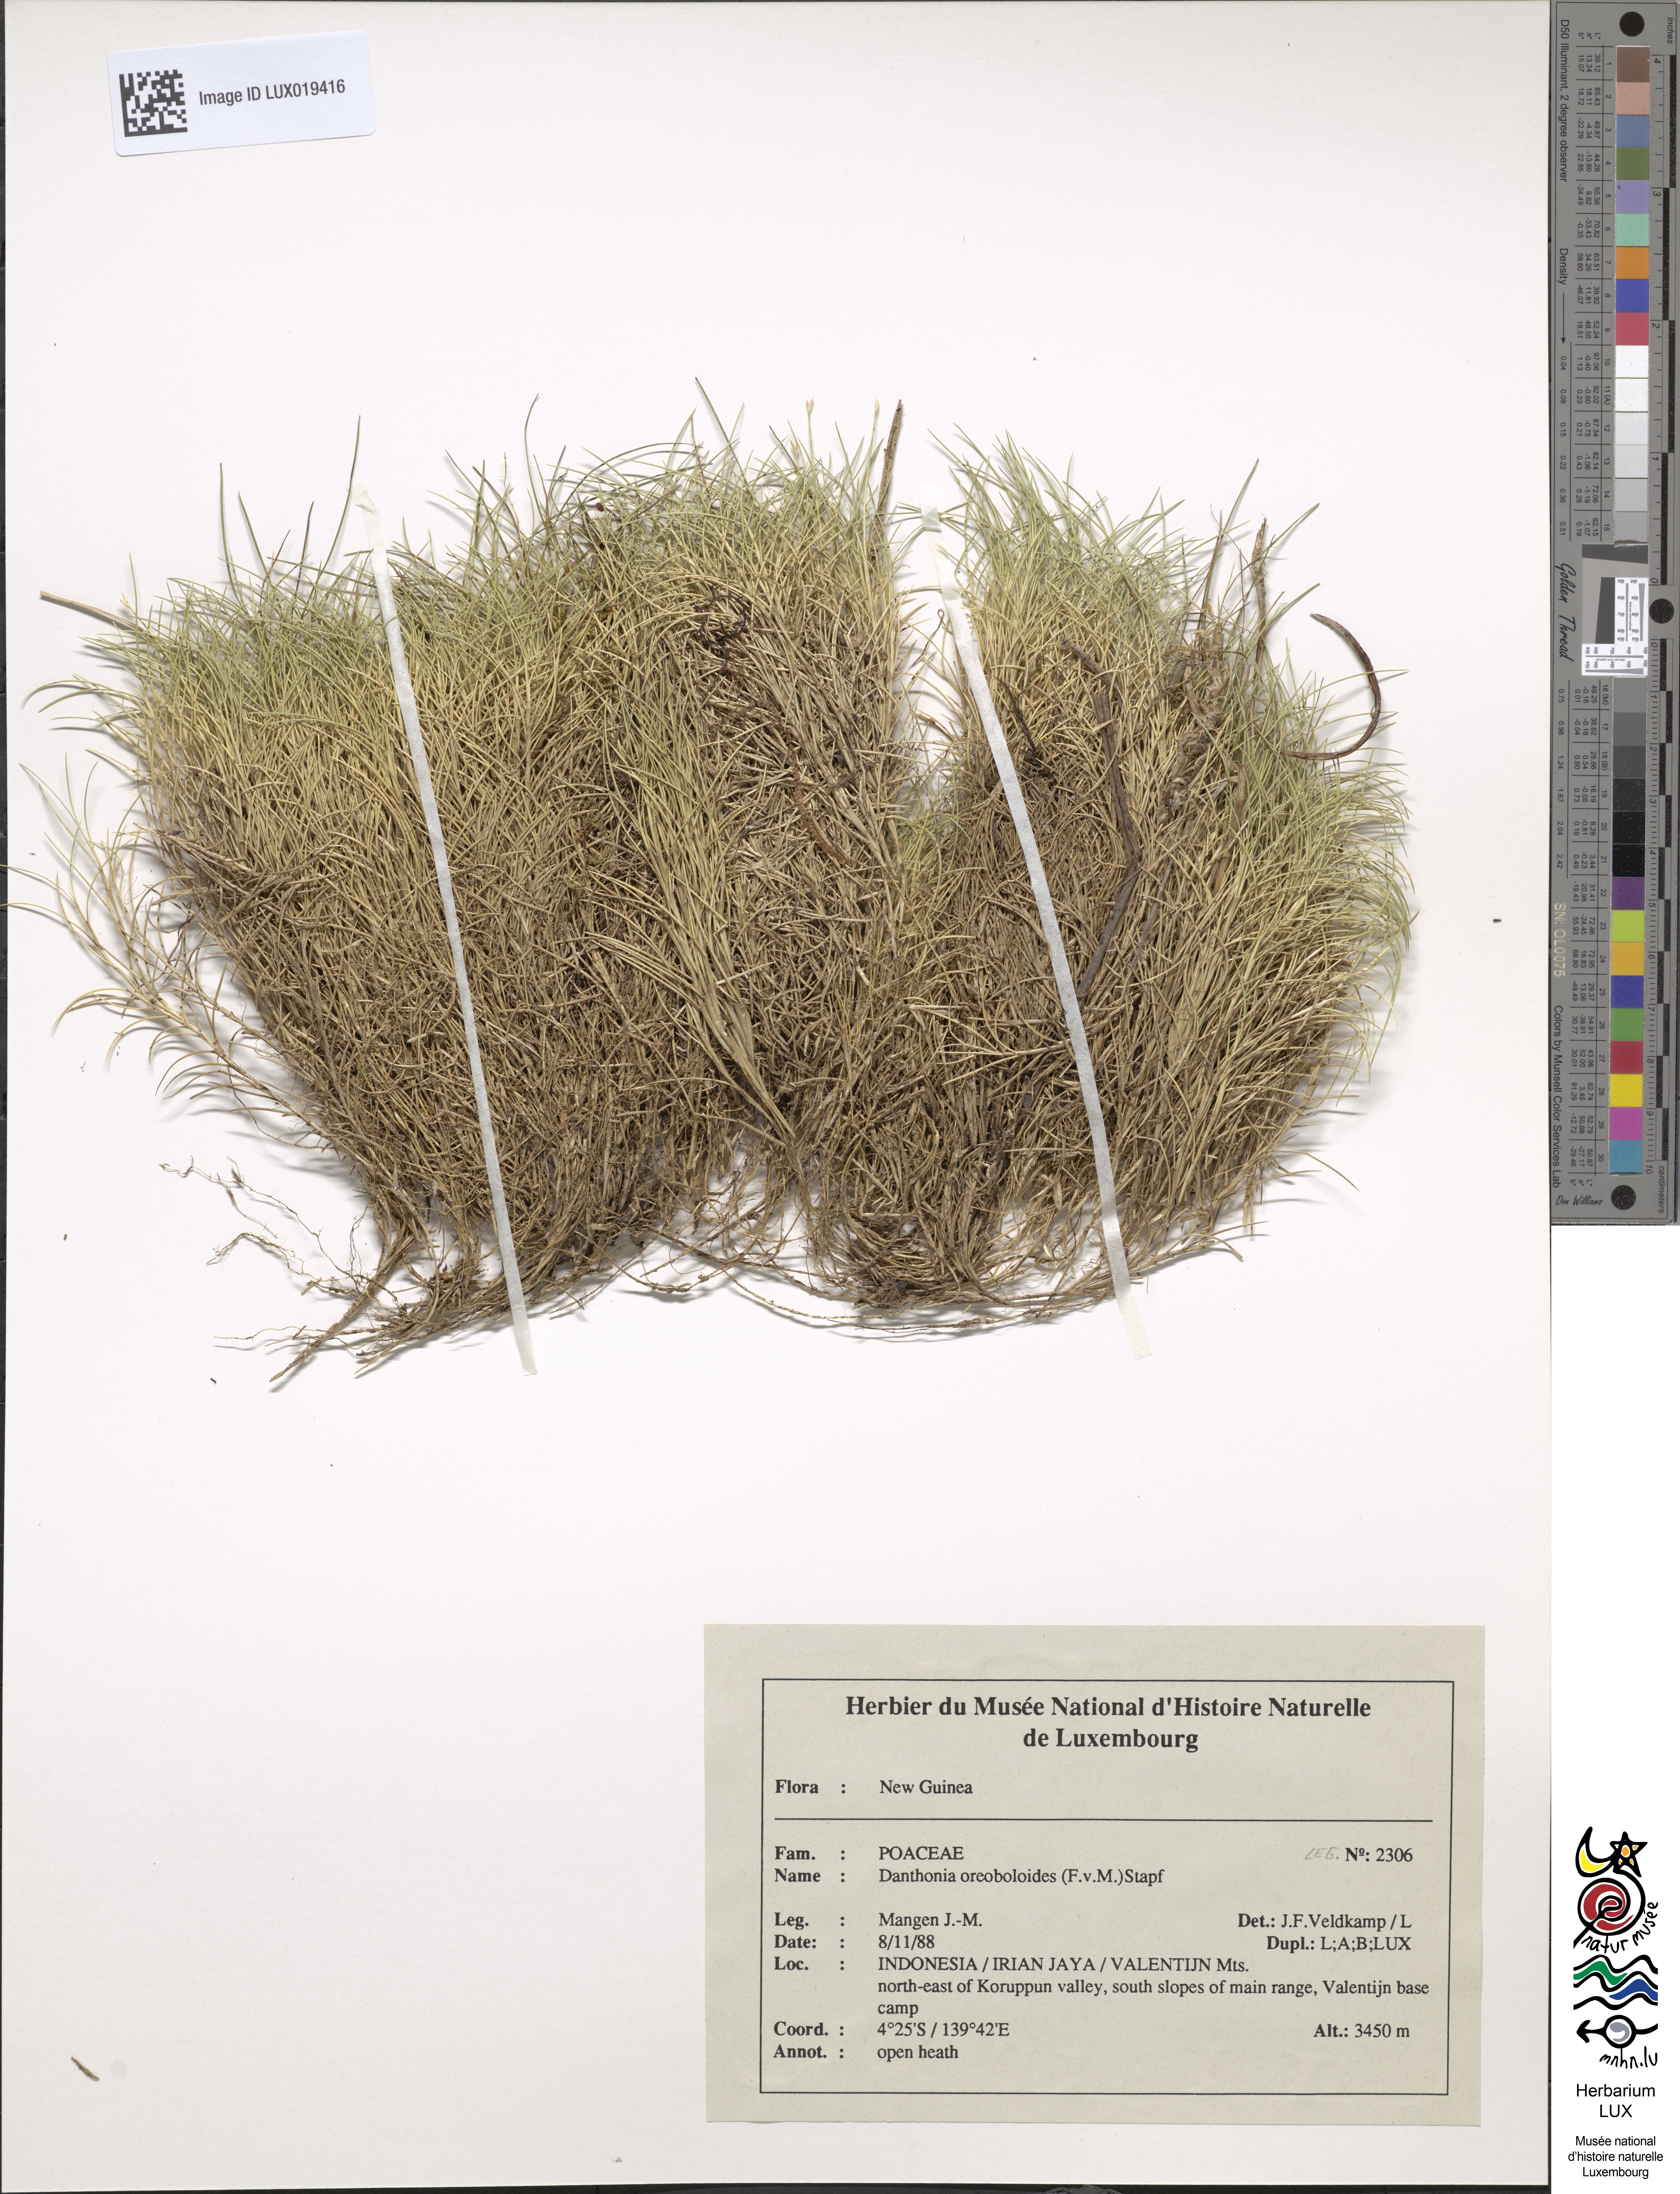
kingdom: Plantae
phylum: Tracheophyta
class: Liliopsida
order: Poales
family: Poaceae
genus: Rytidosperma
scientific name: Rytidosperma oreoboloides
